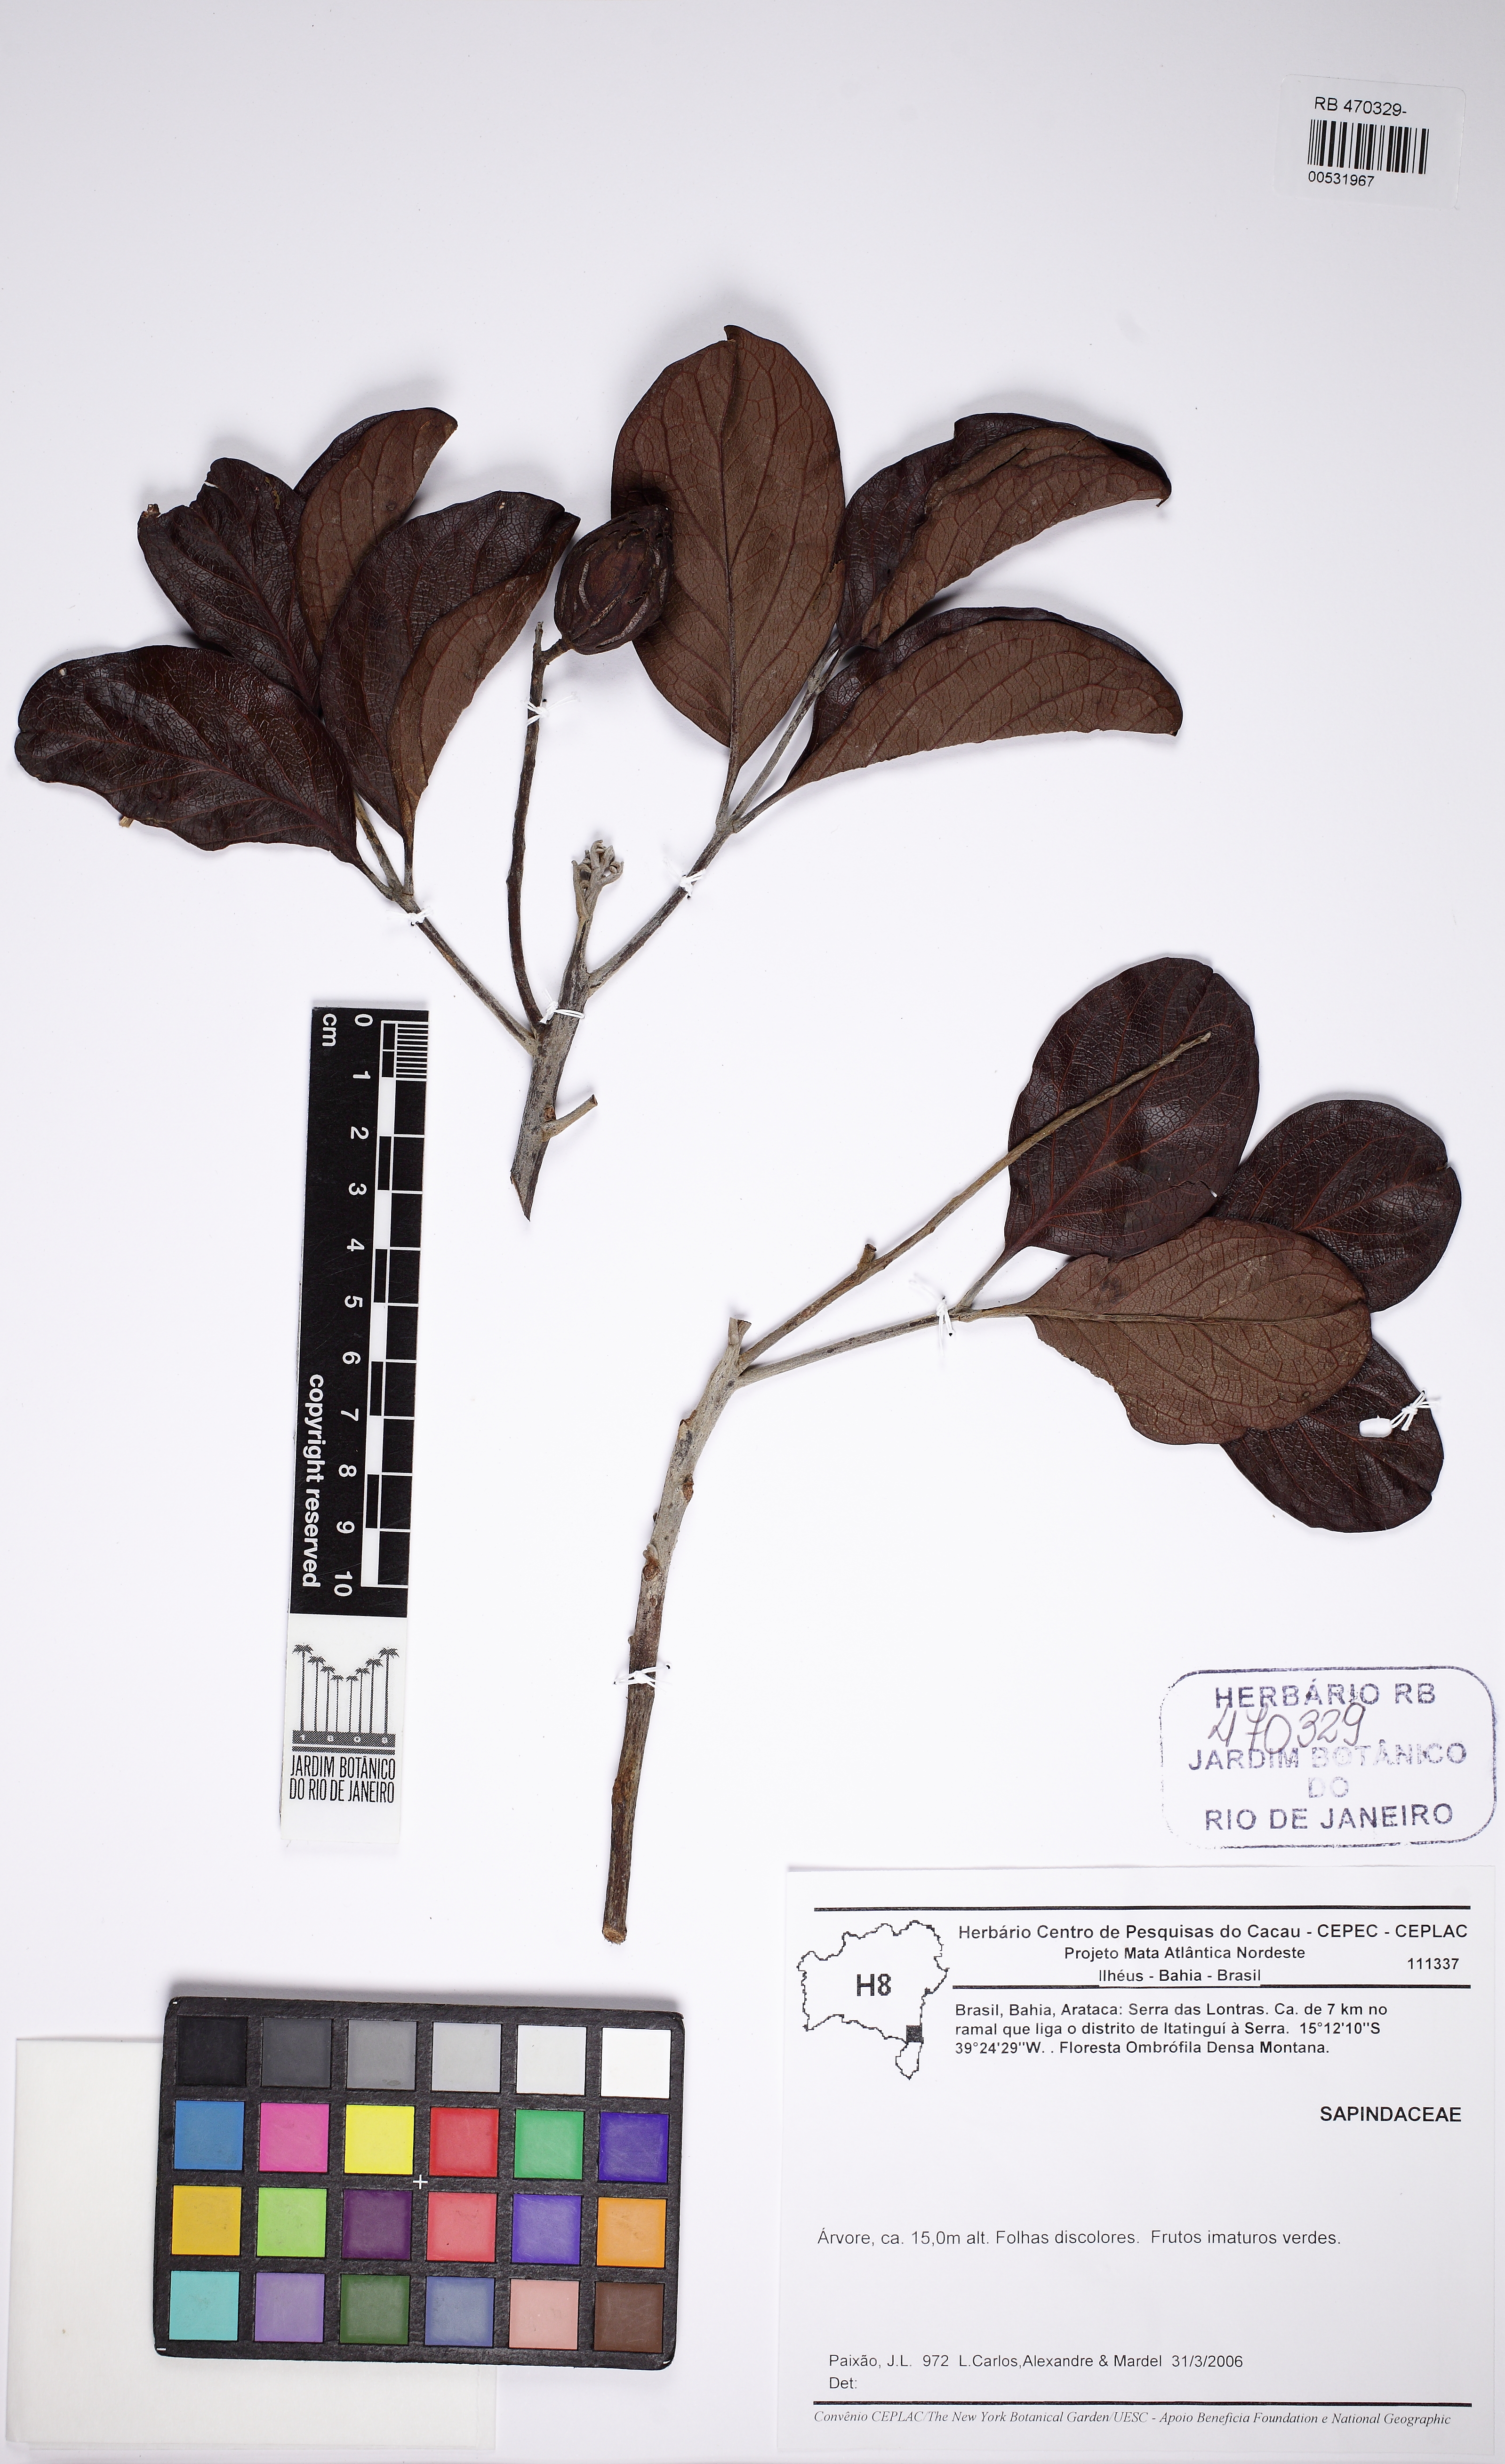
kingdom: Plantae
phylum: Tracheophyta
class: Magnoliopsida
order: Proteales
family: Proteaceae
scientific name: Proteaceae
